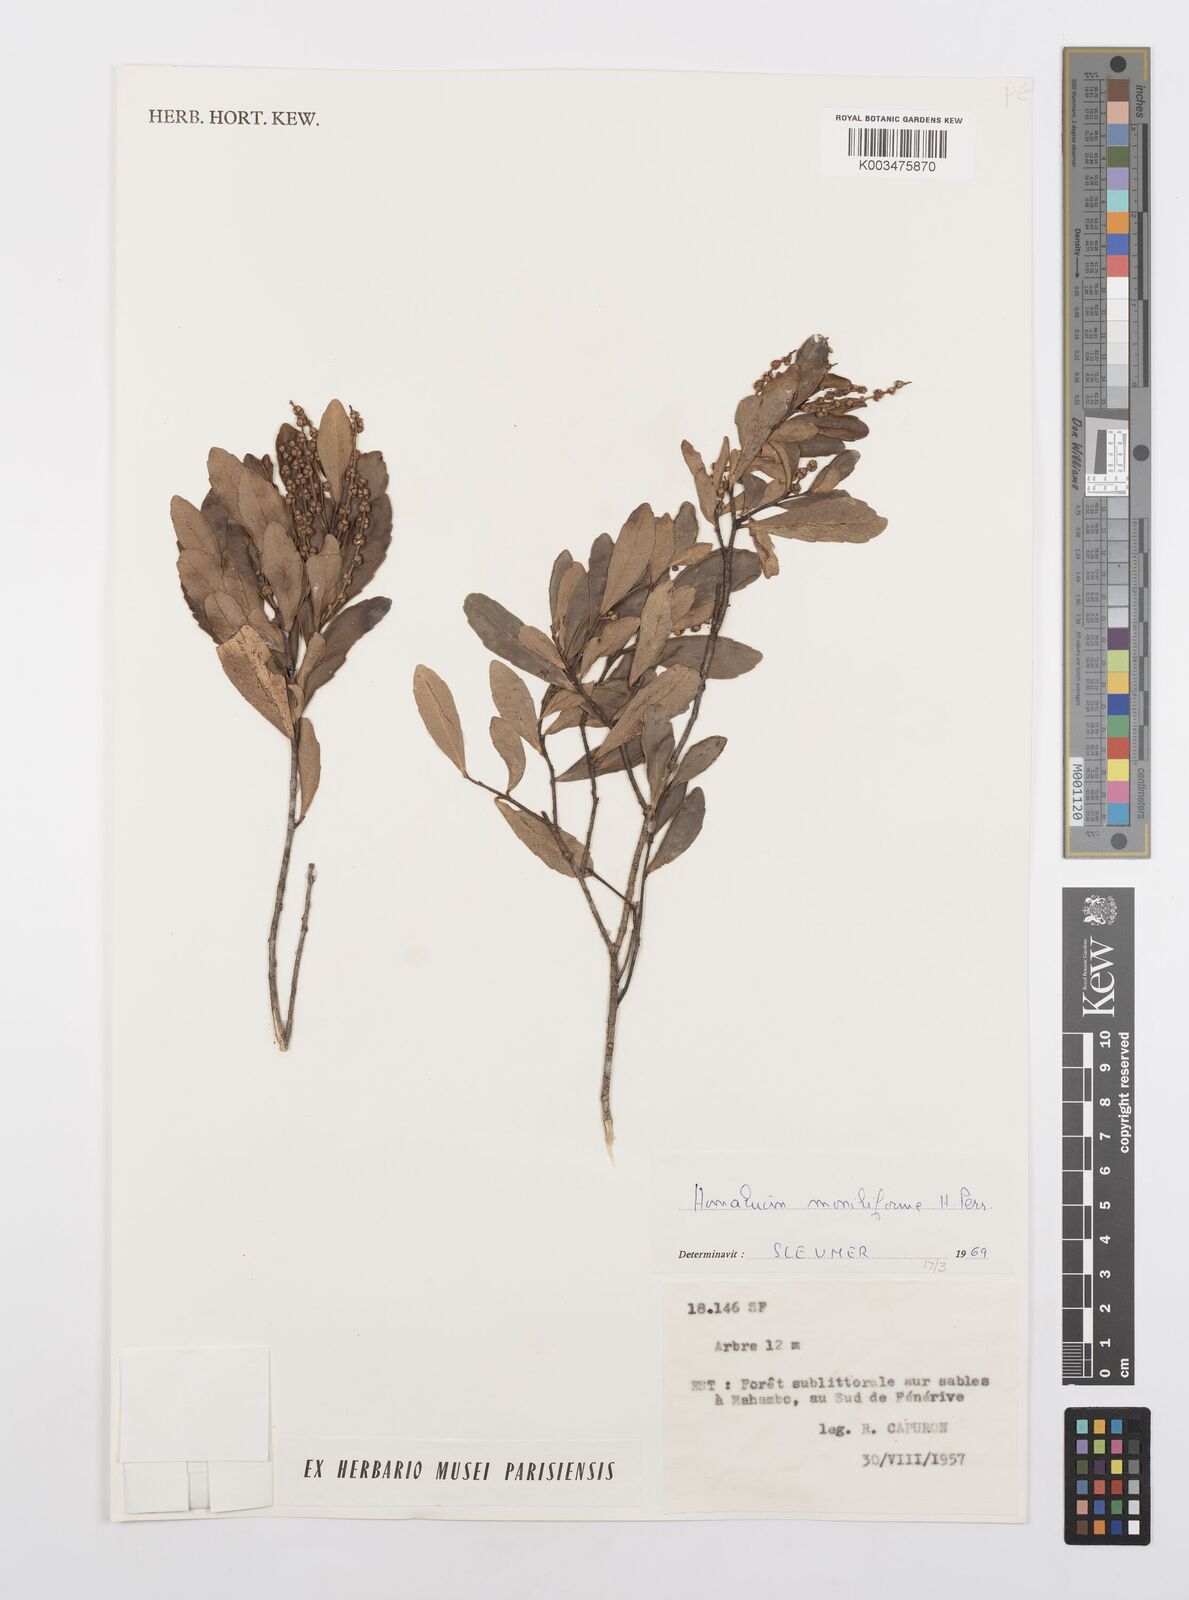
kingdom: Plantae
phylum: Tracheophyta
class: Magnoliopsida
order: Malpighiales
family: Salicaceae
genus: Homalium
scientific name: Homalium moniliforme
